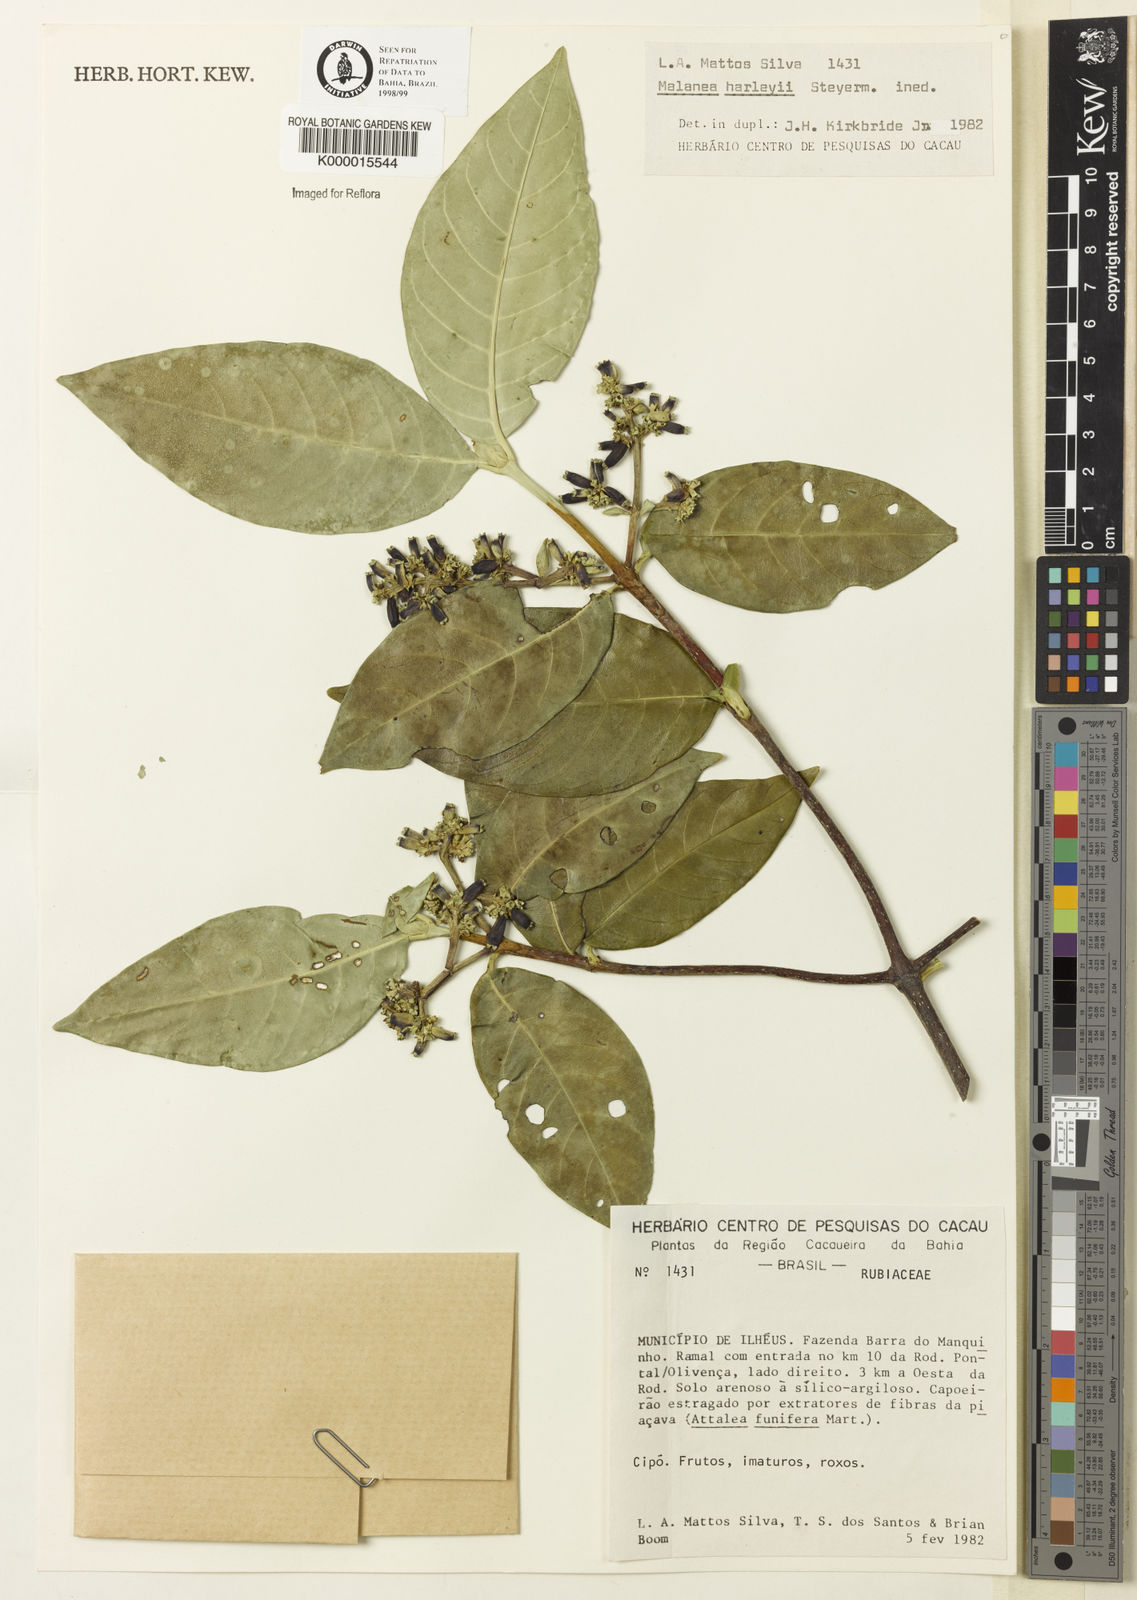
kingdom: Plantae
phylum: Tracheophyta
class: Magnoliopsida
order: Gentianales
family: Rubiaceae
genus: Malanea
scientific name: Malanea
